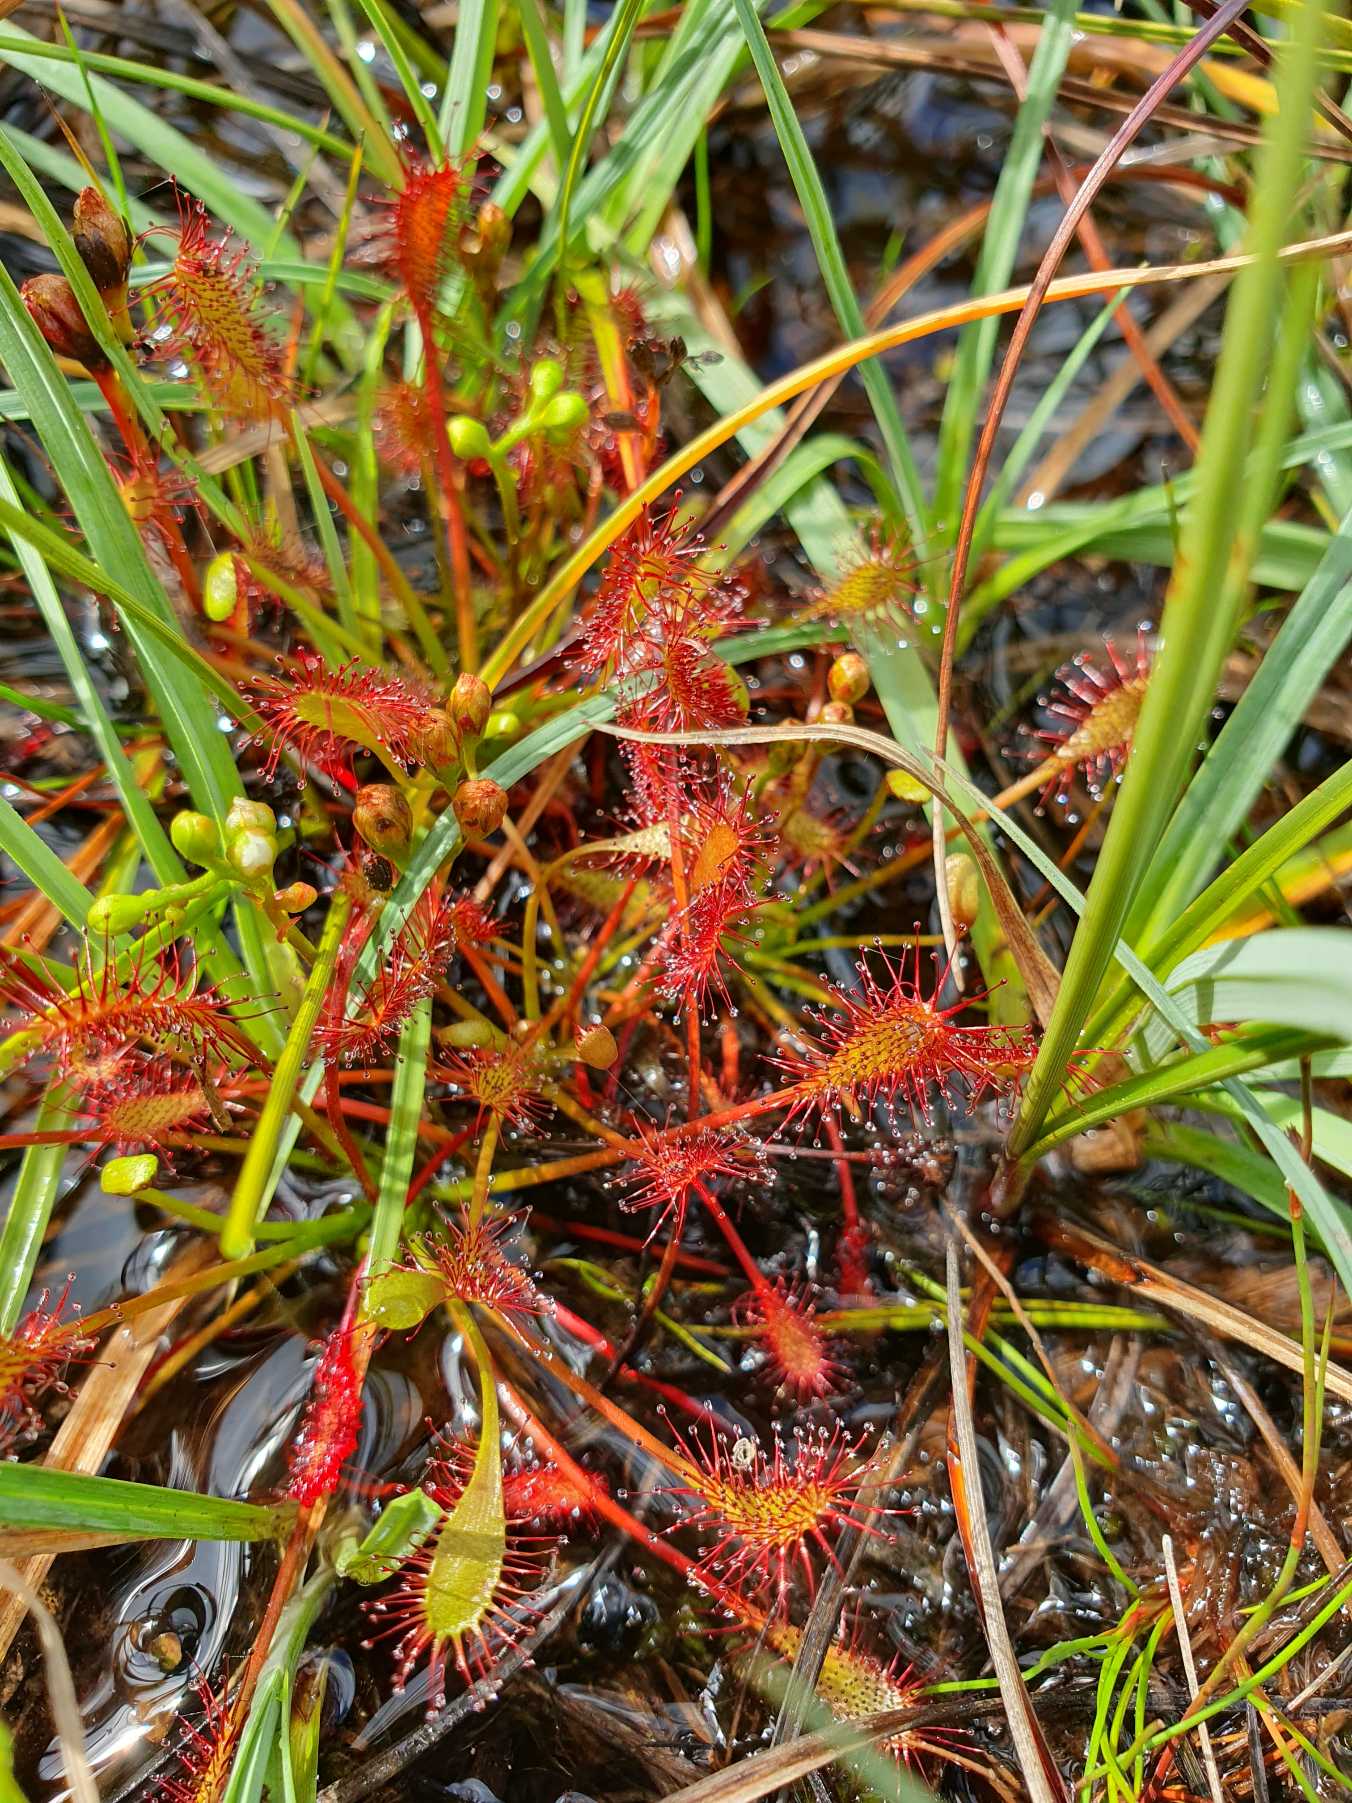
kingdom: Plantae
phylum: Tracheophyta
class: Magnoliopsida
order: Caryophyllales
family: Droseraceae
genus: Drosera
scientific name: Drosera intermedia
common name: Liden soldug
